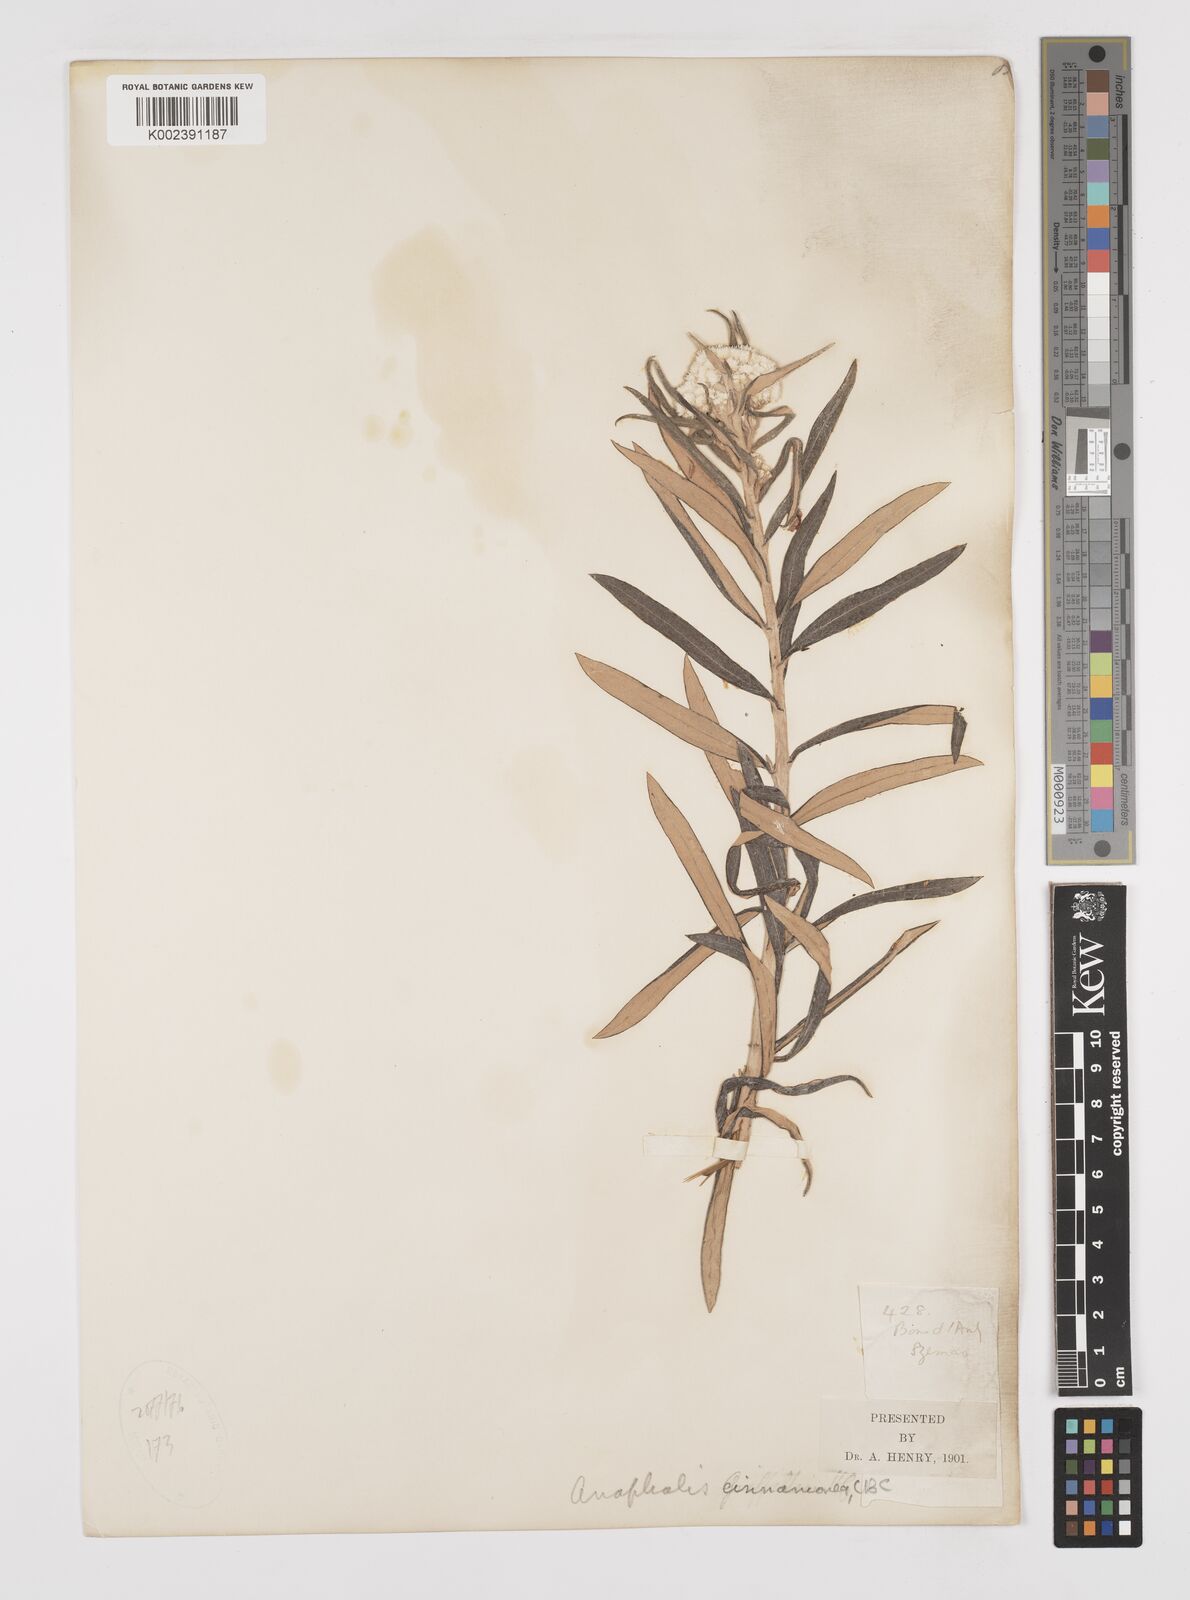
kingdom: Plantae
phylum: Tracheophyta
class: Magnoliopsida
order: Asterales
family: Asteraceae
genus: Anaphalis
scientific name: Anaphalis margaritacea
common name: Pearly everlasting
